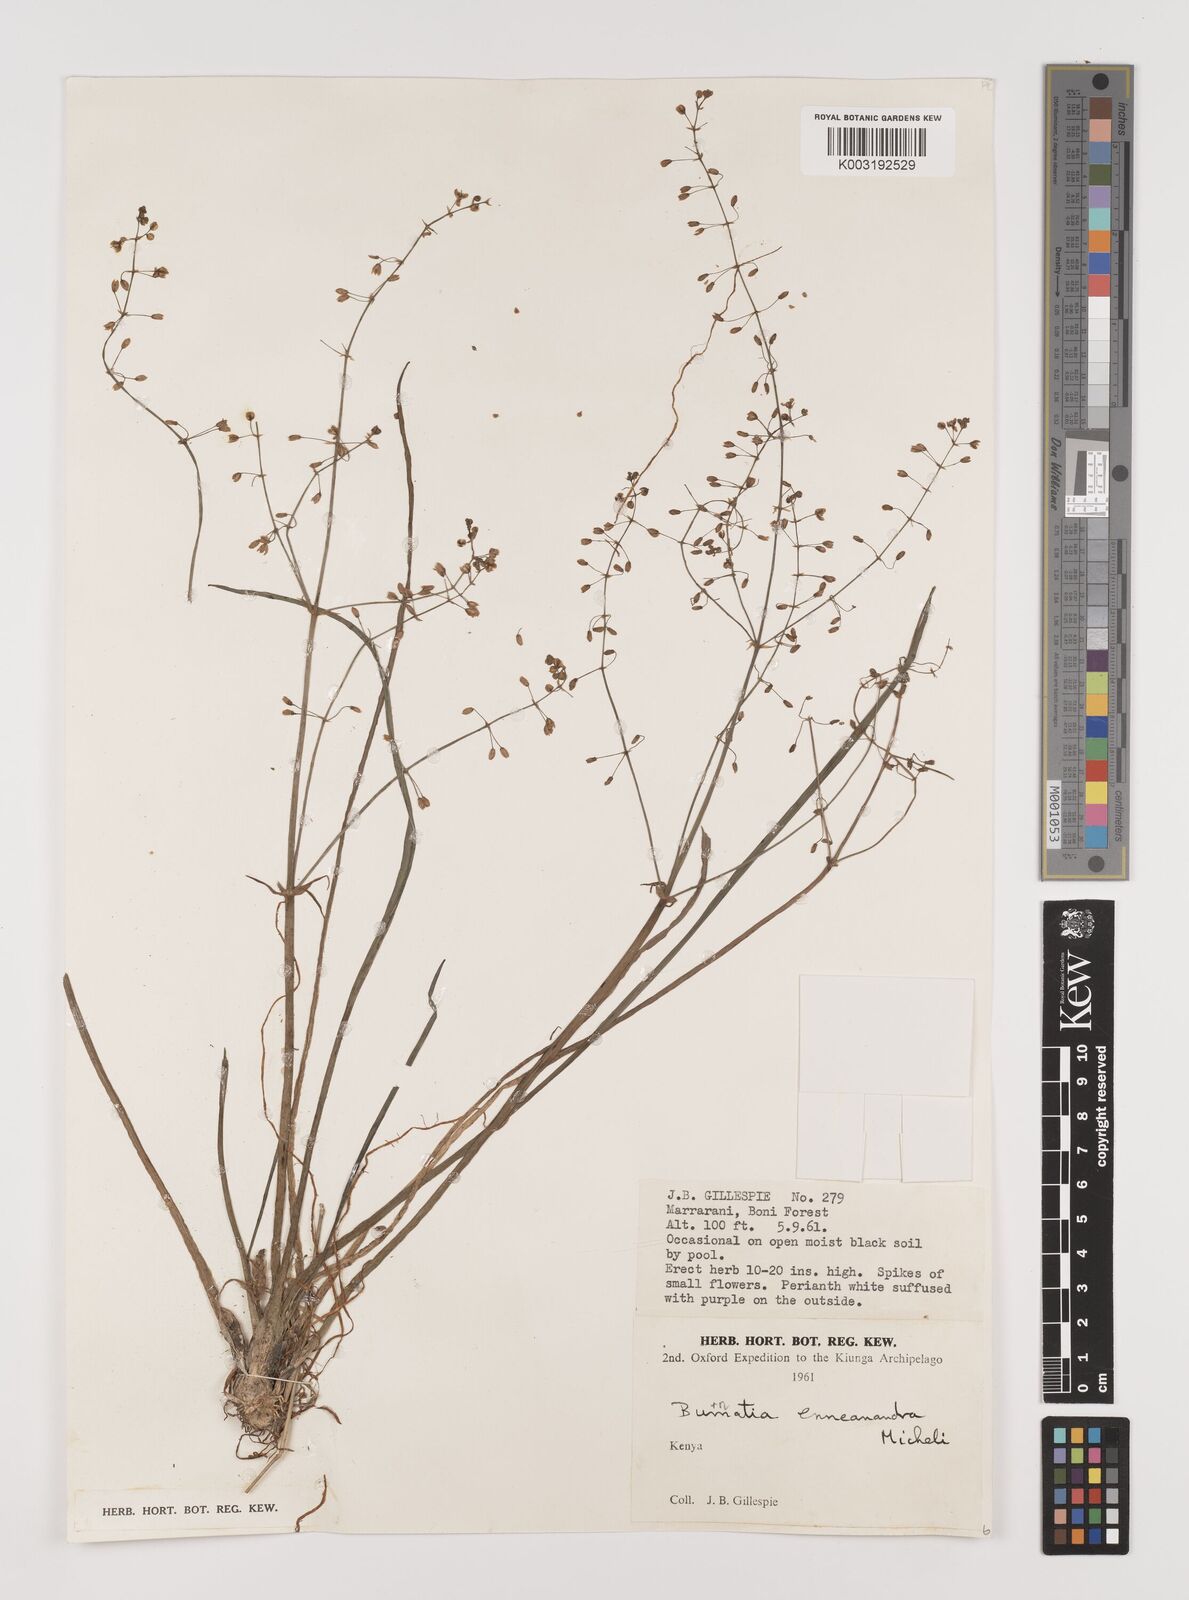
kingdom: Plantae
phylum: Tracheophyta
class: Liliopsida
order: Alismatales
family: Alismataceae
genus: Burnatia
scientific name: Burnatia enneandra
